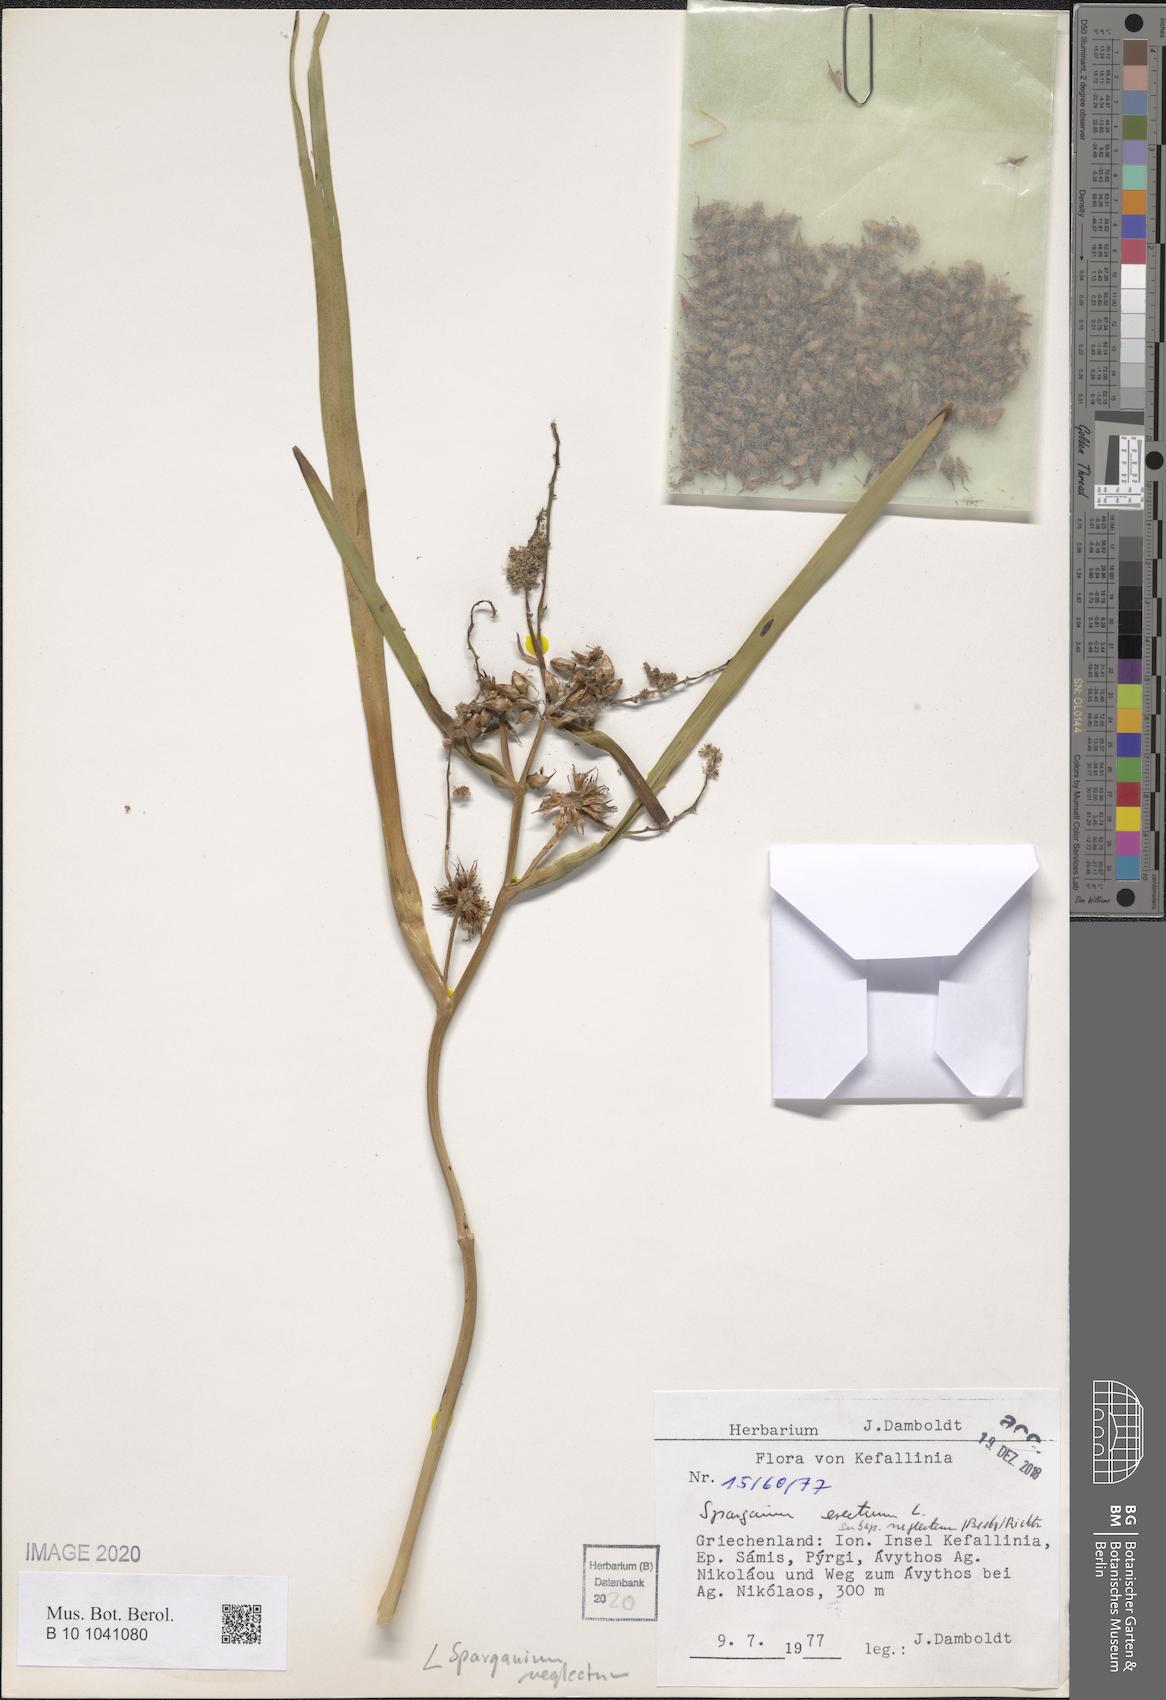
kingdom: Plantae
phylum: Tracheophyta
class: Liliopsida
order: Poales
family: Typhaceae
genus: Sparganium
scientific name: Sparganium erectum
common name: Branched bur-reed
